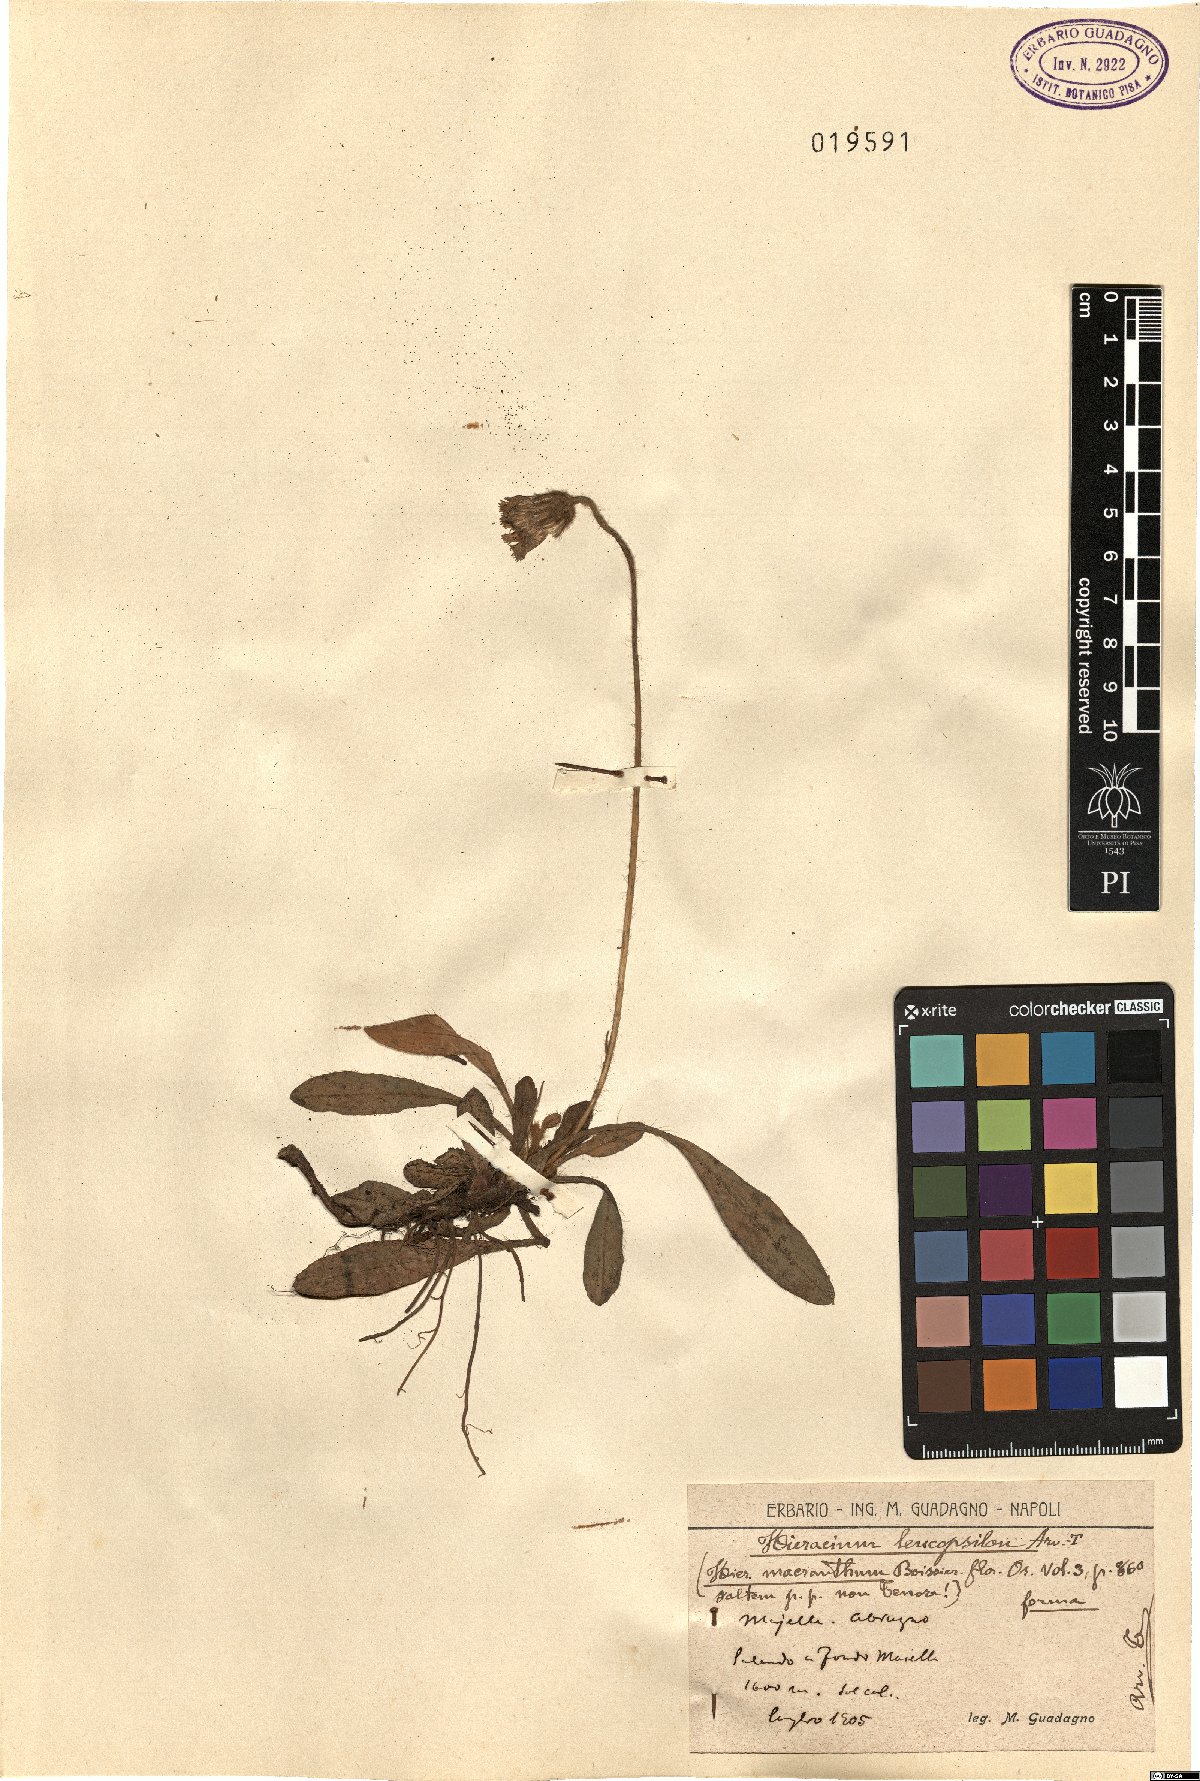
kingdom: Plantae
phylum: Tracheophyta
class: Magnoliopsida
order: Asterales
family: Asteraceae
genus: Pilosella
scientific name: Pilosella leucopsilon
